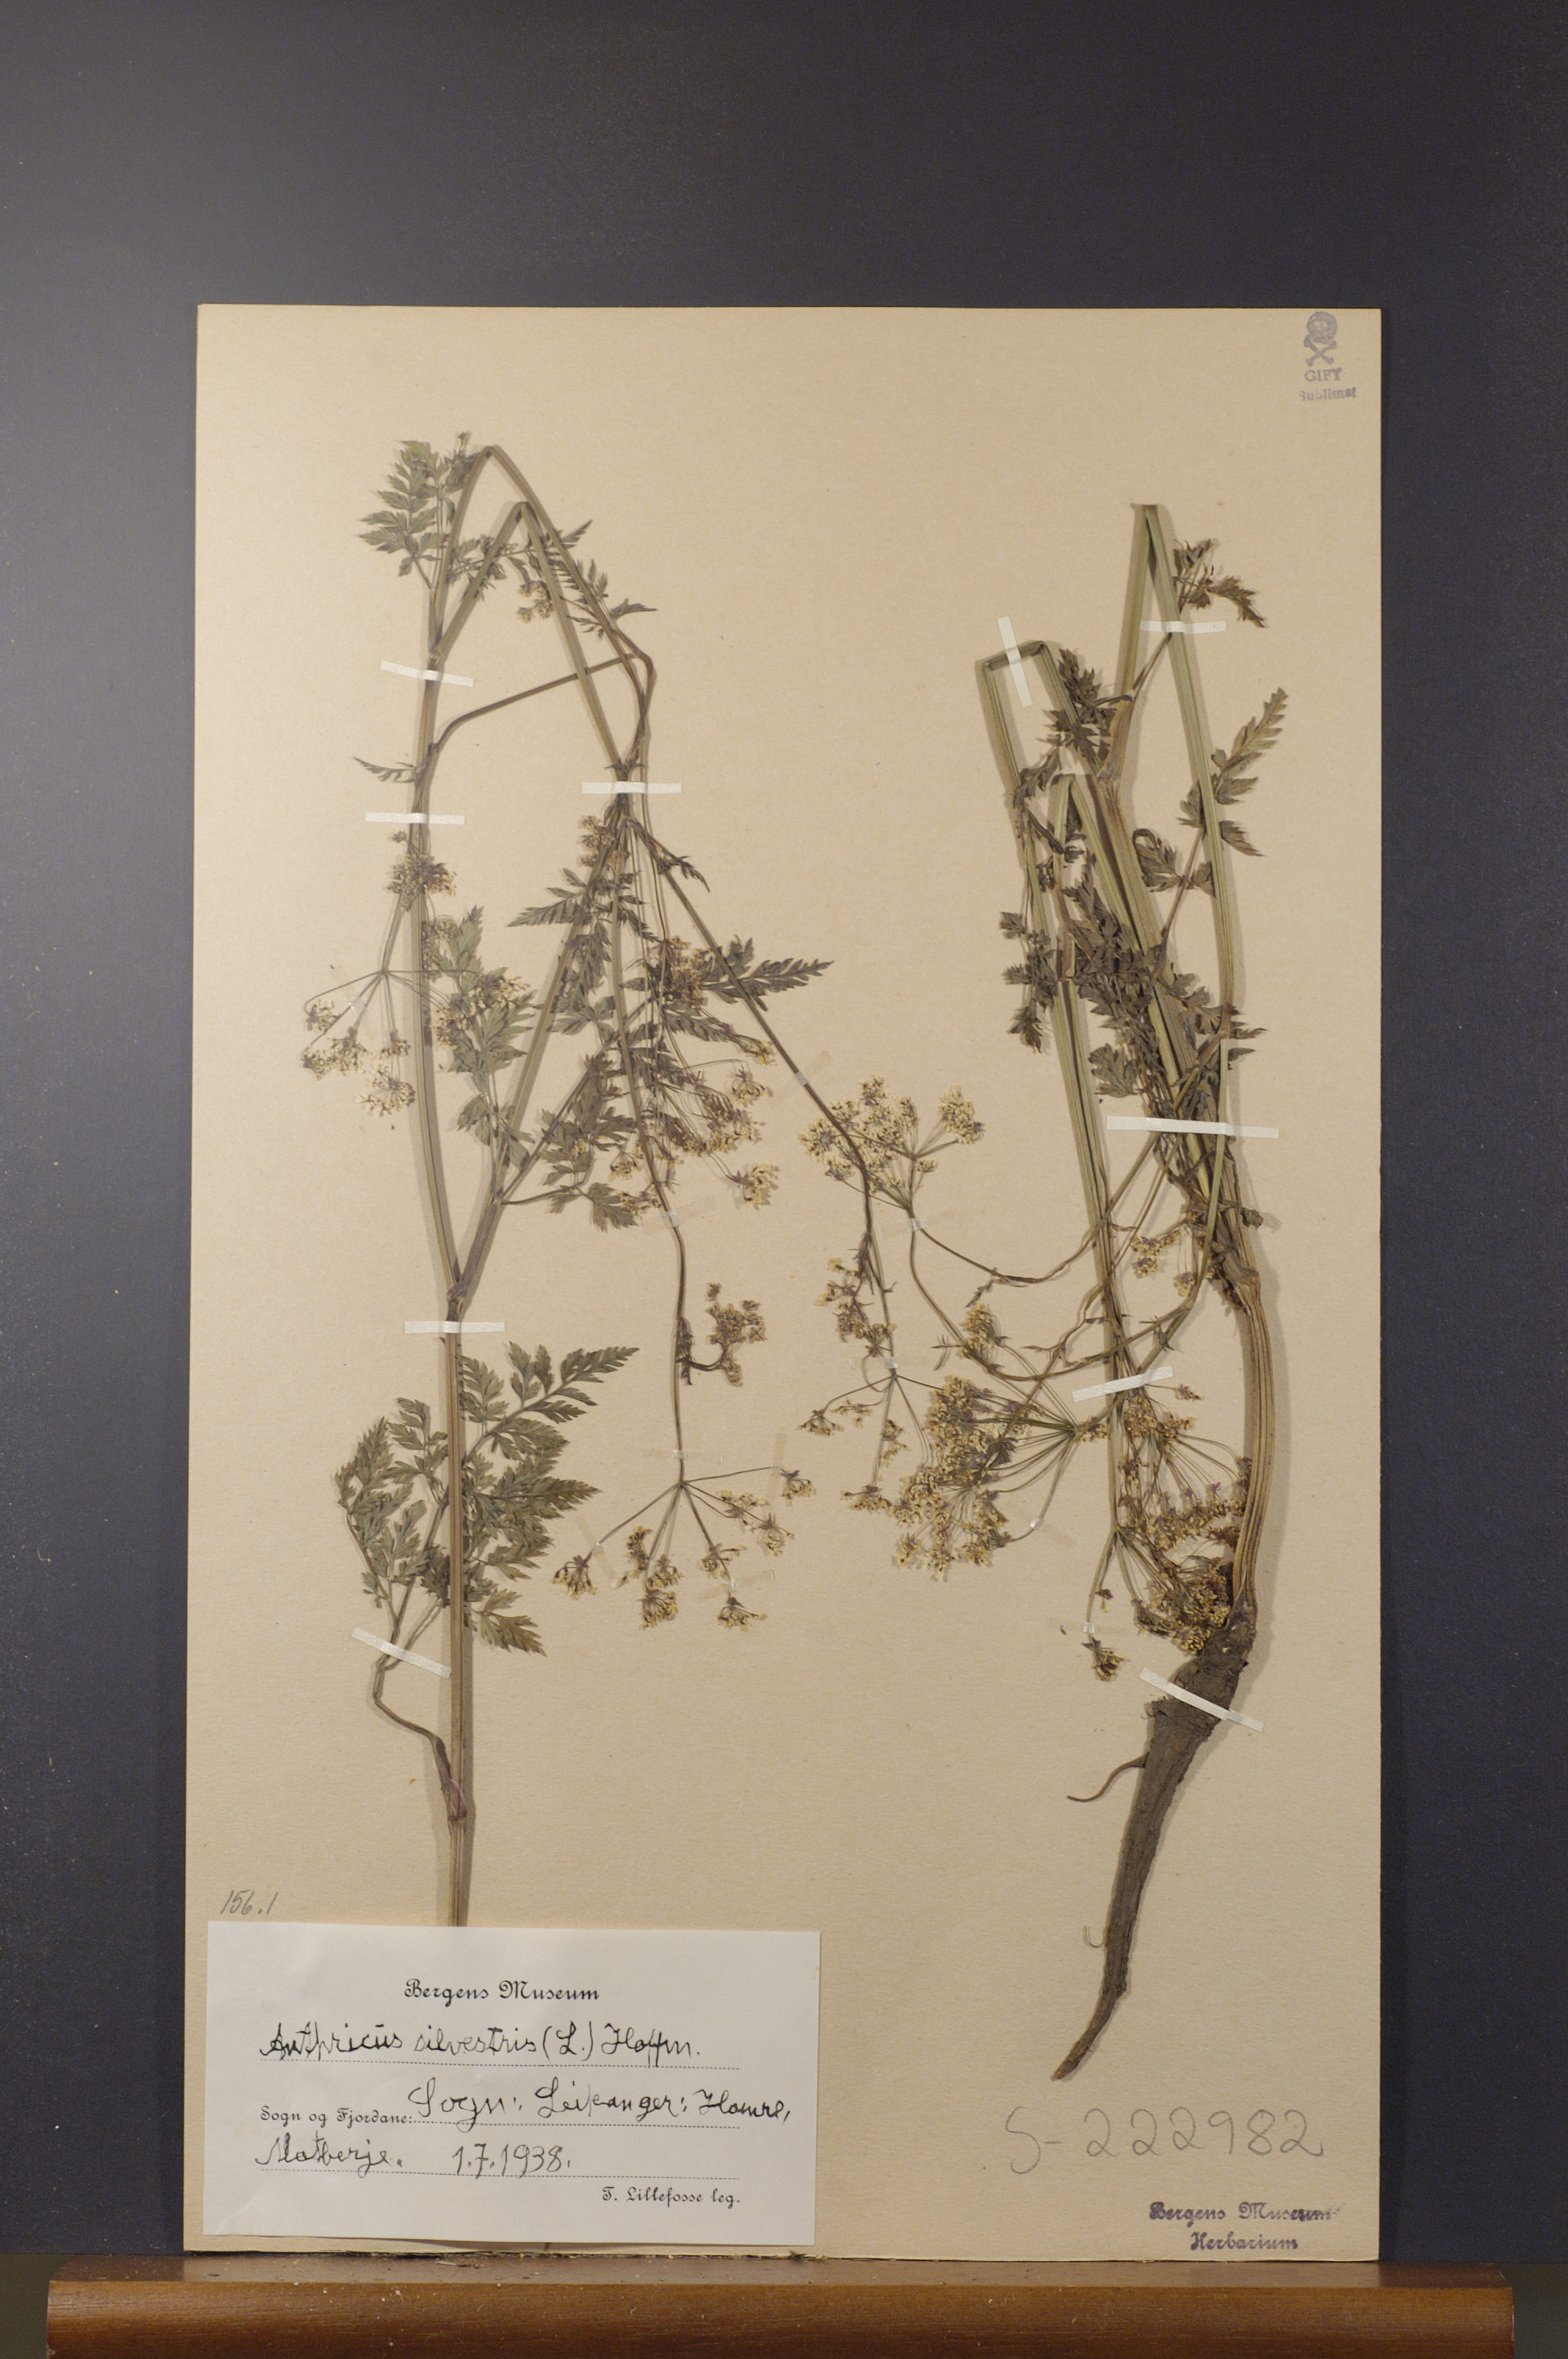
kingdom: Plantae
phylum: Tracheophyta
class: Magnoliopsida
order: Apiales
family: Apiaceae
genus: Anthriscus
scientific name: Anthriscus sylvestris
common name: Cow parsley
